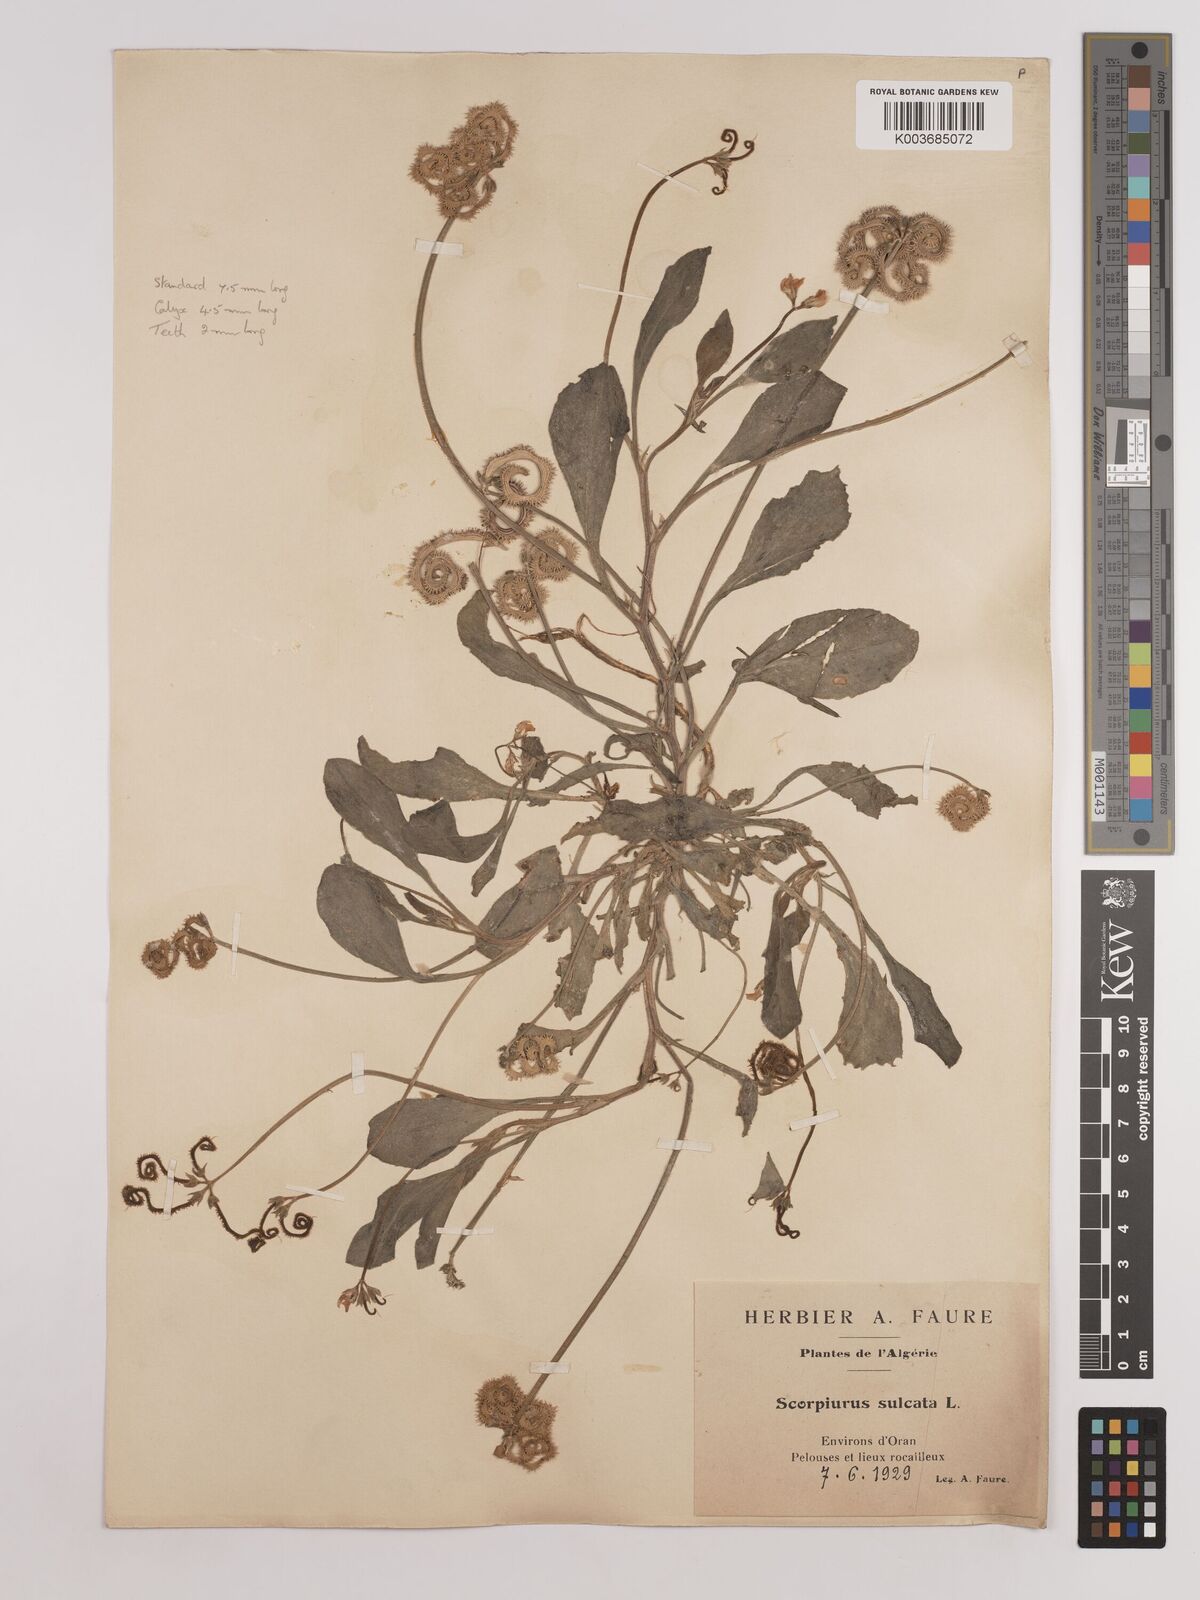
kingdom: Plantae
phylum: Tracheophyta
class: Magnoliopsida
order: Fabales
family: Fabaceae
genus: Scorpiurus
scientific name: Scorpiurus muricatus
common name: Caterpillar-plant
